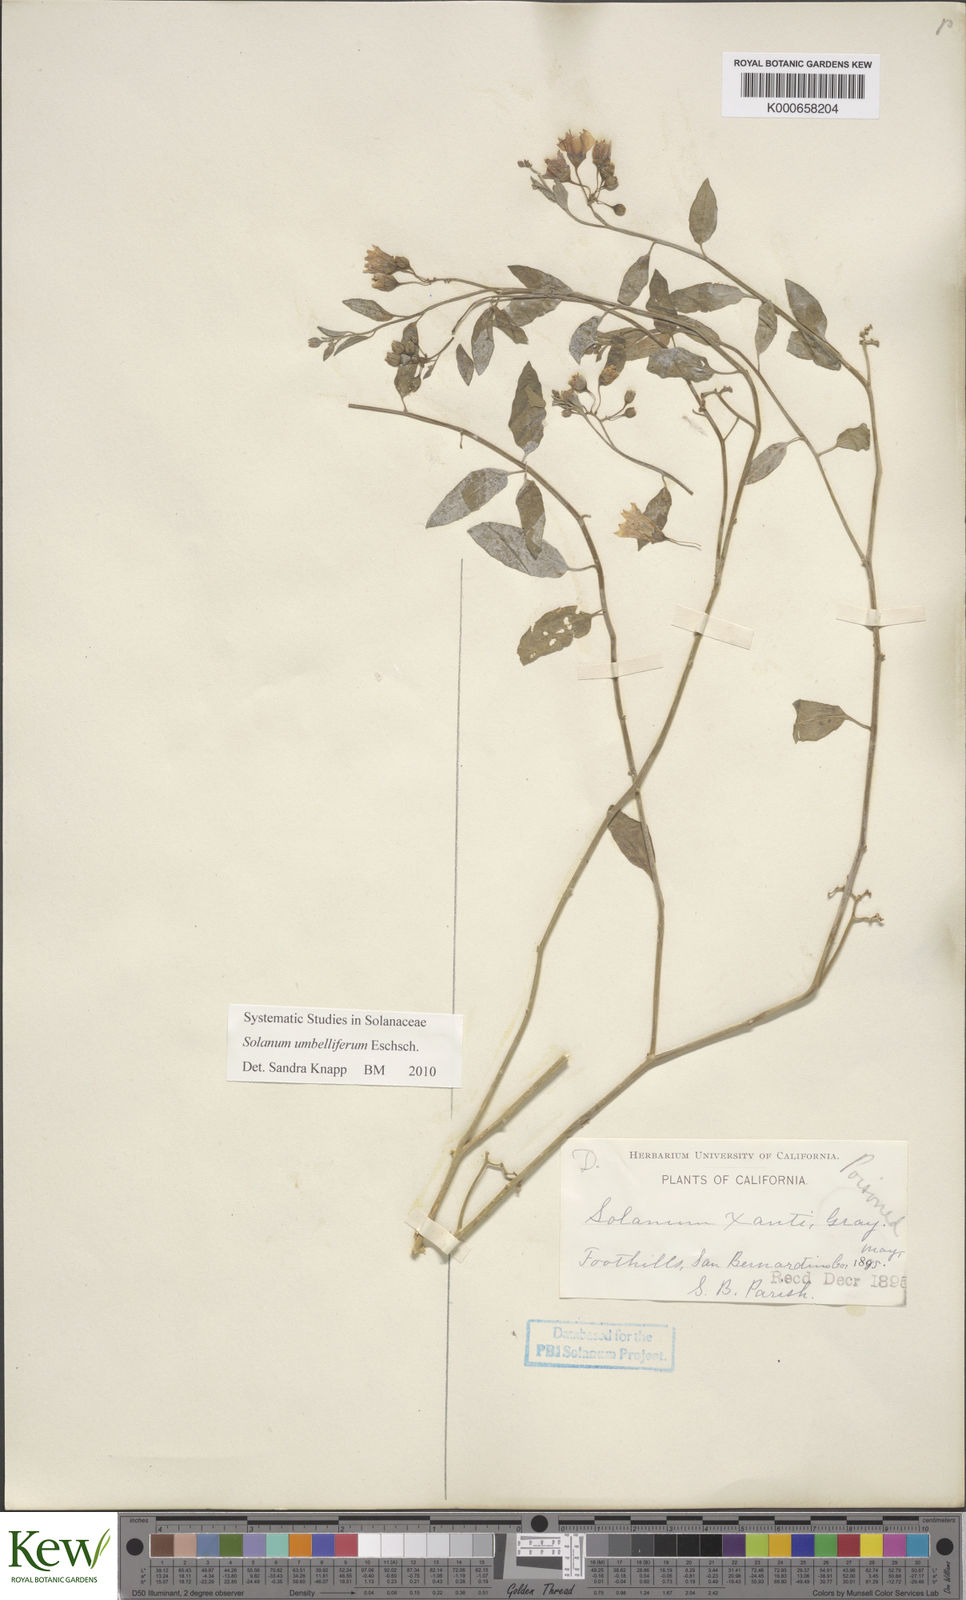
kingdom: Plantae
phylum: Tracheophyta
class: Magnoliopsida
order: Solanales
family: Solanaceae
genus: Solanum
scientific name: Solanum umbelliferum
